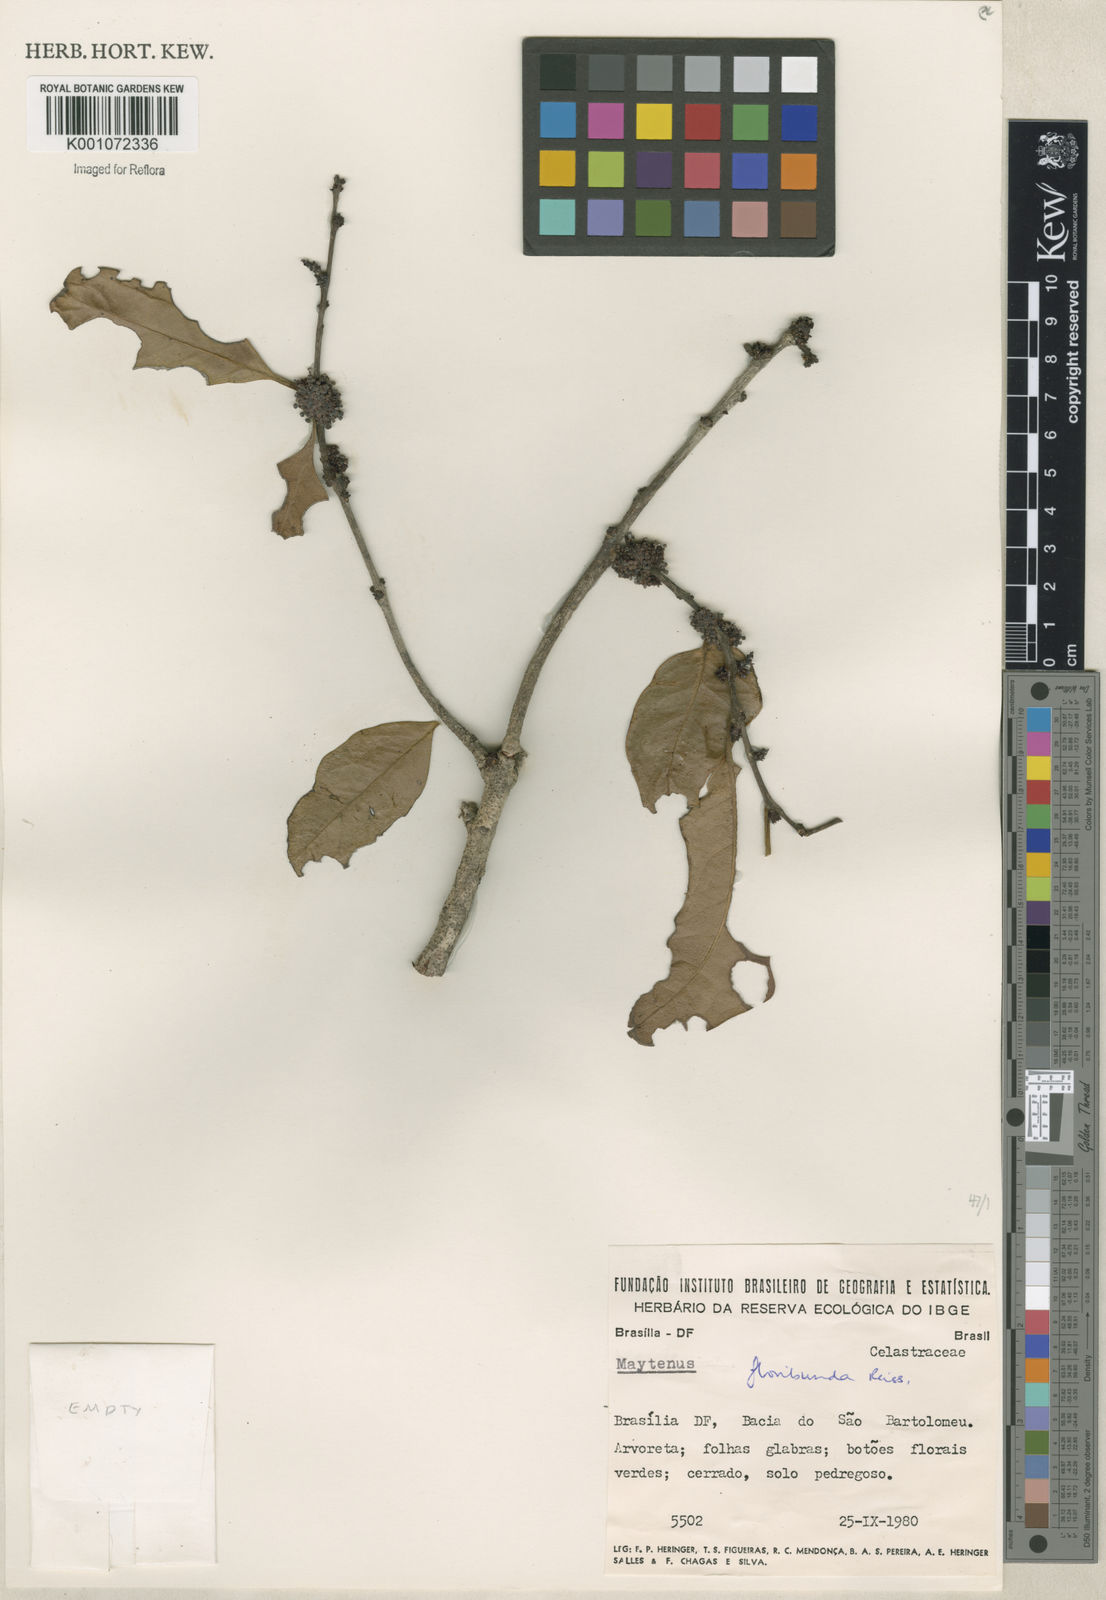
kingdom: Plantae
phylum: Tracheophyta
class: Magnoliopsida
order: Celastrales
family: Celastraceae
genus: Monteverdia
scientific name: Monteverdia floribunda
